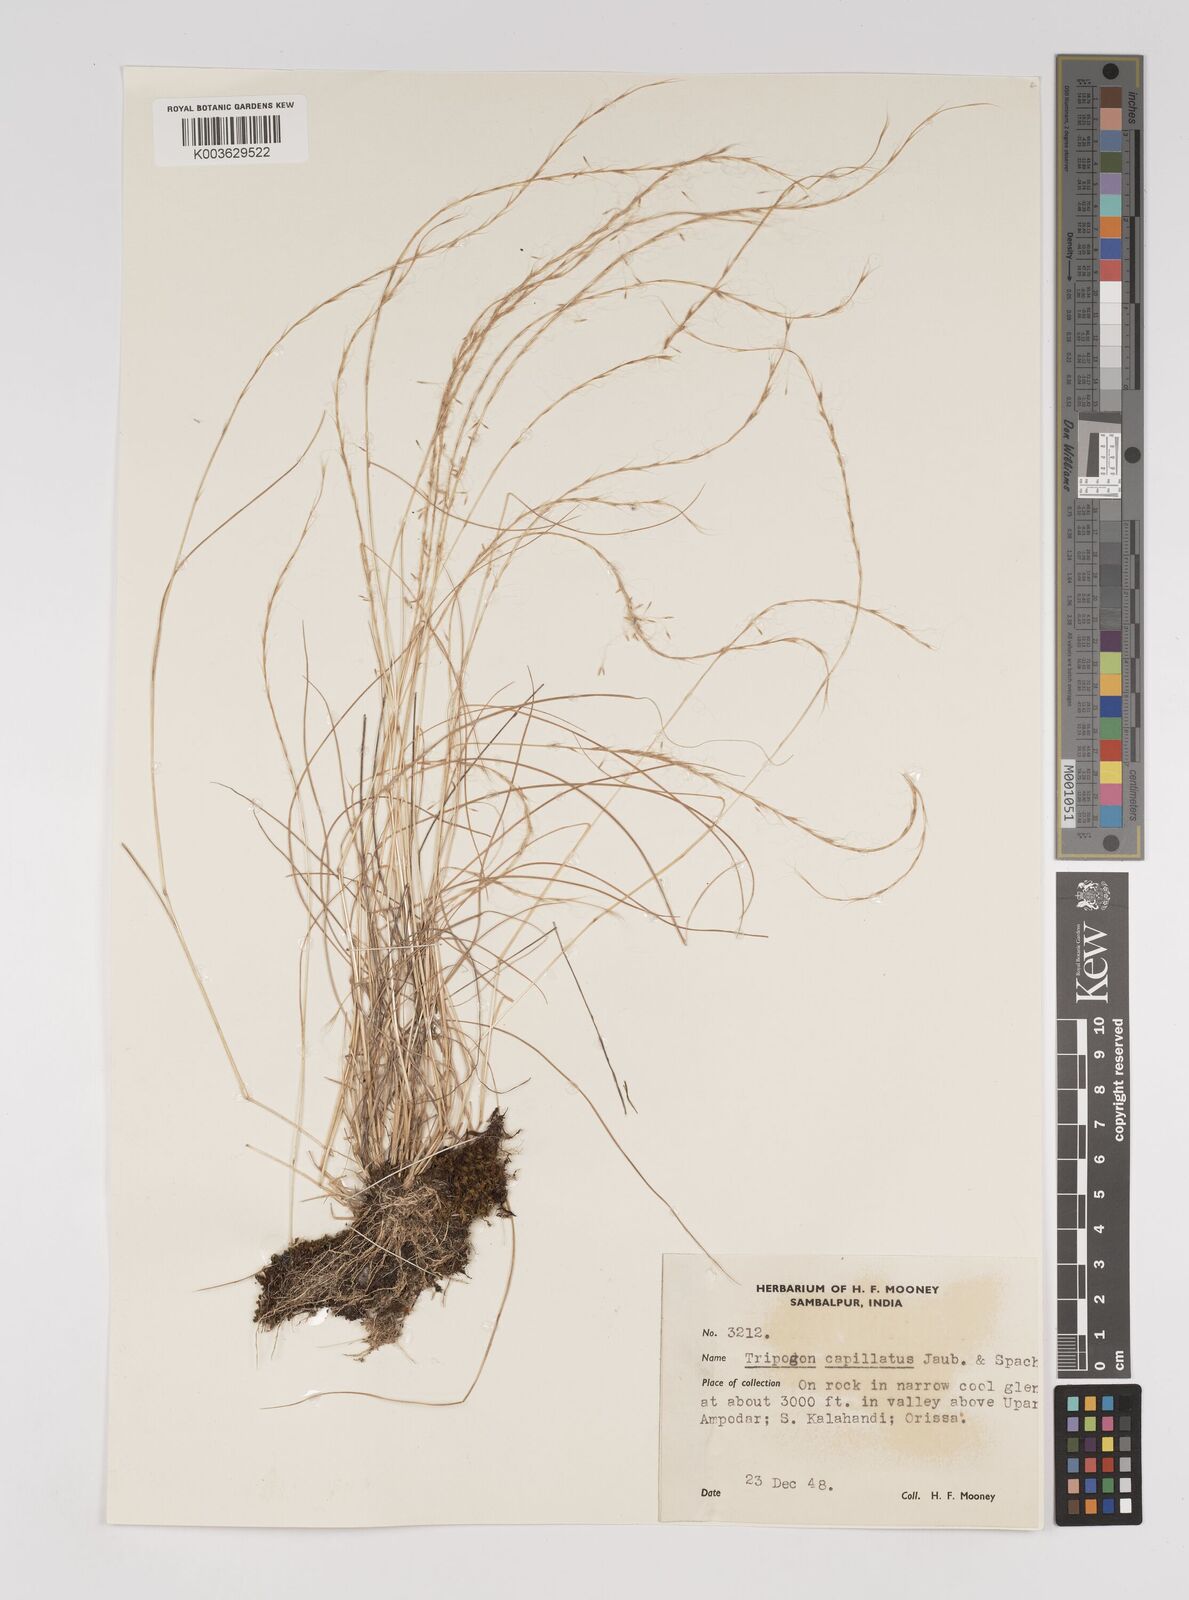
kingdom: Plantae
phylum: Tracheophyta
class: Liliopsida
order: Poales
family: Poaceae
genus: Tripogon
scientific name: Tripogon capillatus
